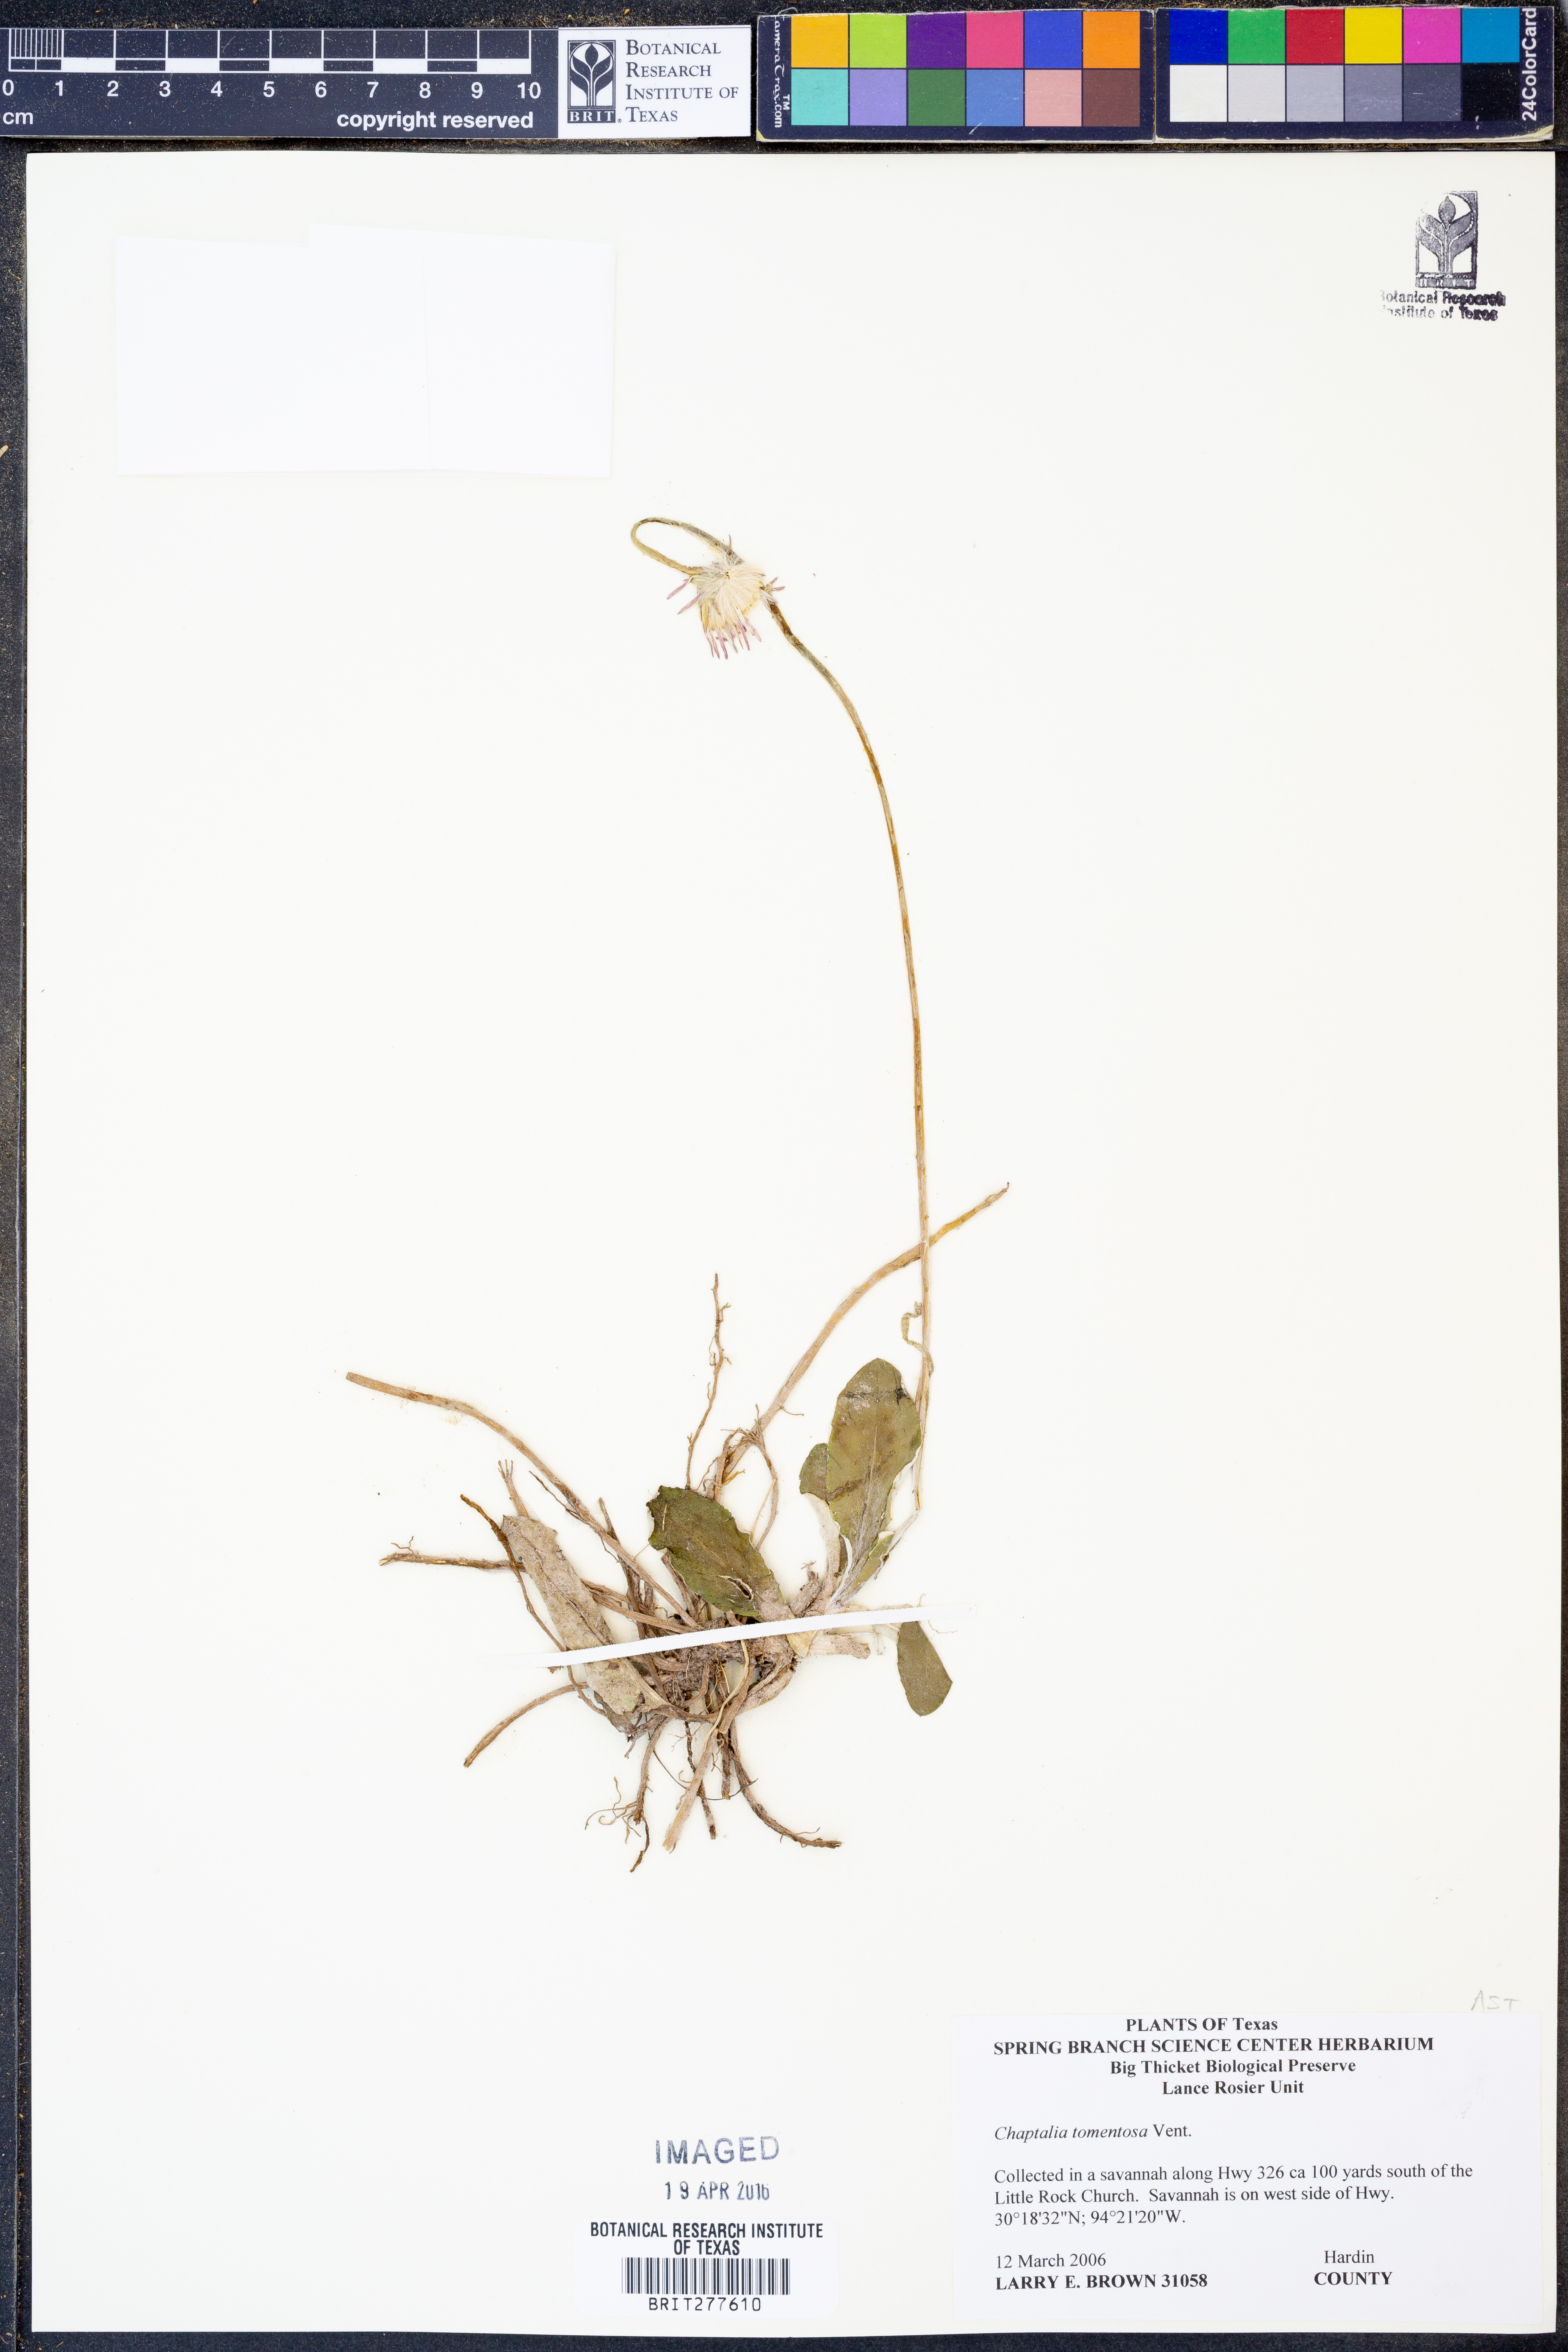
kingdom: Plantae
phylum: Tracheophyta
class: Magnoliopsida
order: Asterales
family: Asteraceae
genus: Chaptalia
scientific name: Chaptalia tomentosa
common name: Woolly sunbonnet
